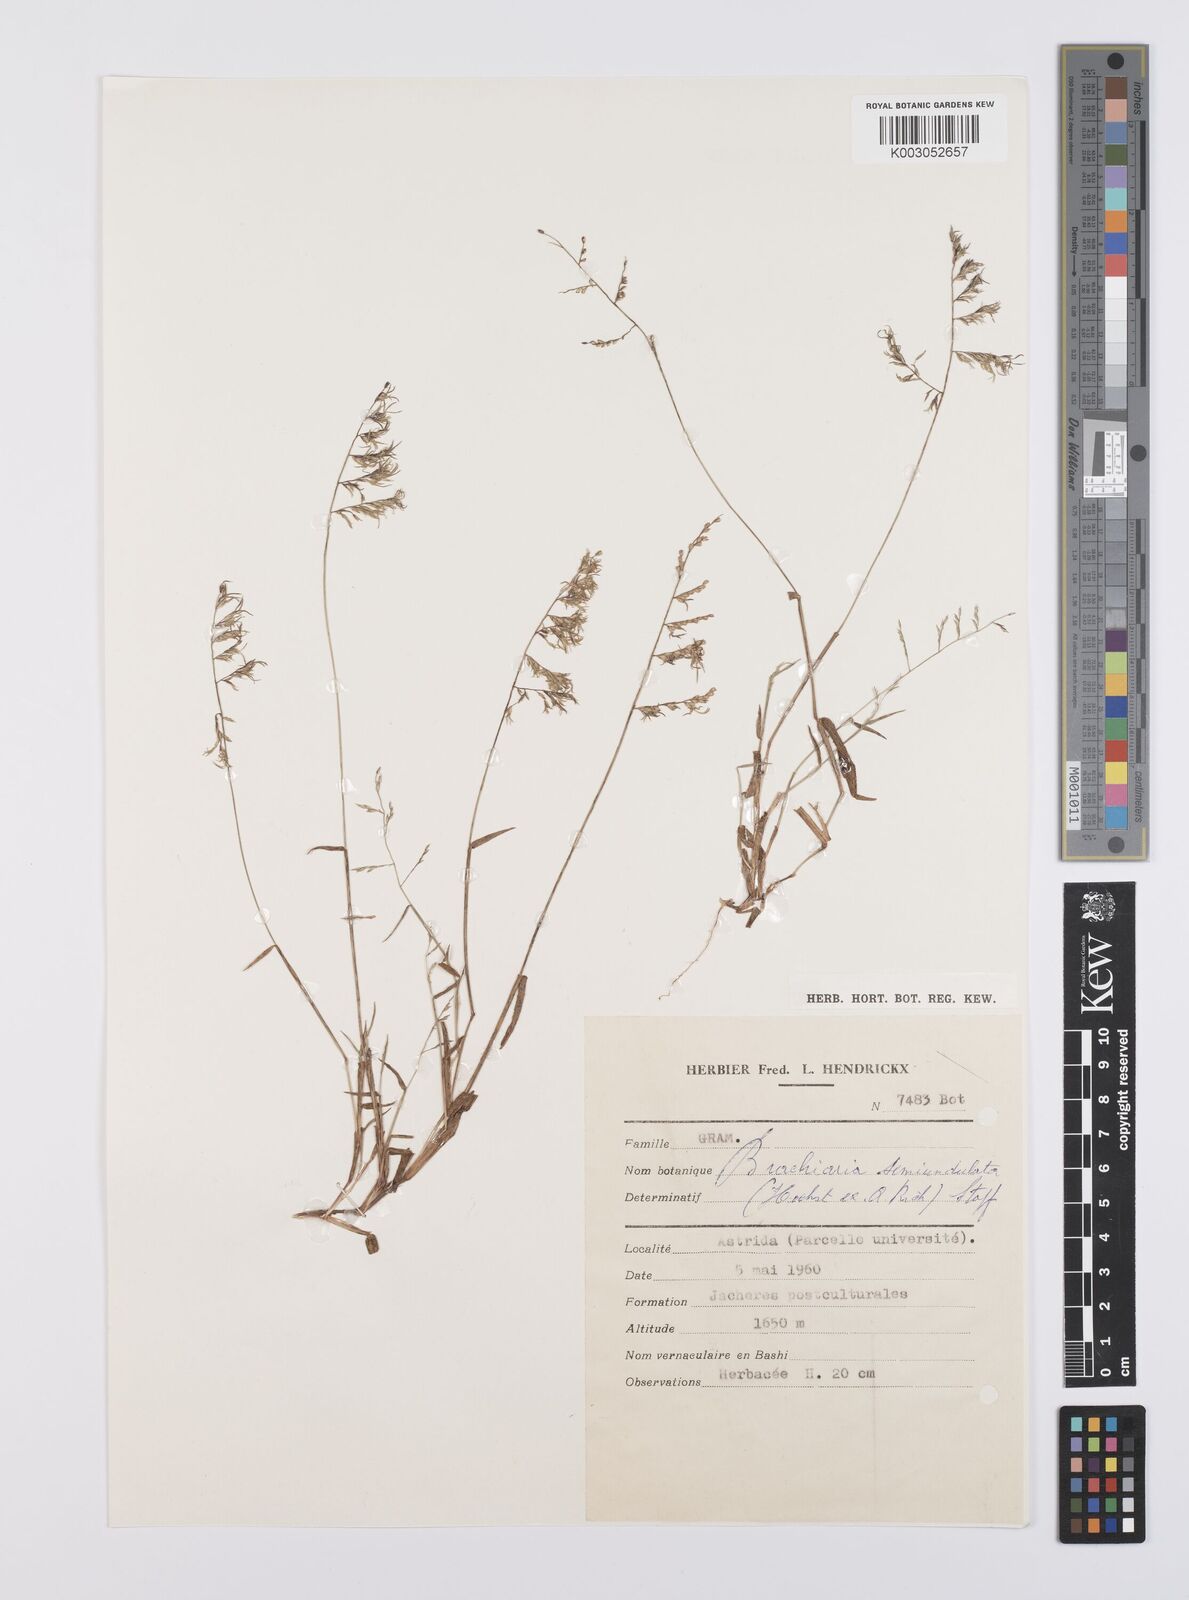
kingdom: Plantae
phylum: Tracheophyta
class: Liliopsida
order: Poales
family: Poaceae
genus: Urochloa
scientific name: Urochloa comata
